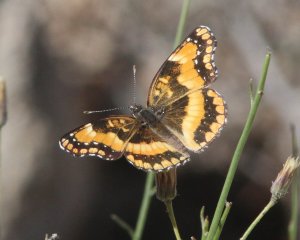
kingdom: Animalia
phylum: Arthropoda
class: Insecta
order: Lepidoptera
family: Nymphalidae
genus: Chlosyne
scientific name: Chlosyne californica
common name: California Patch
